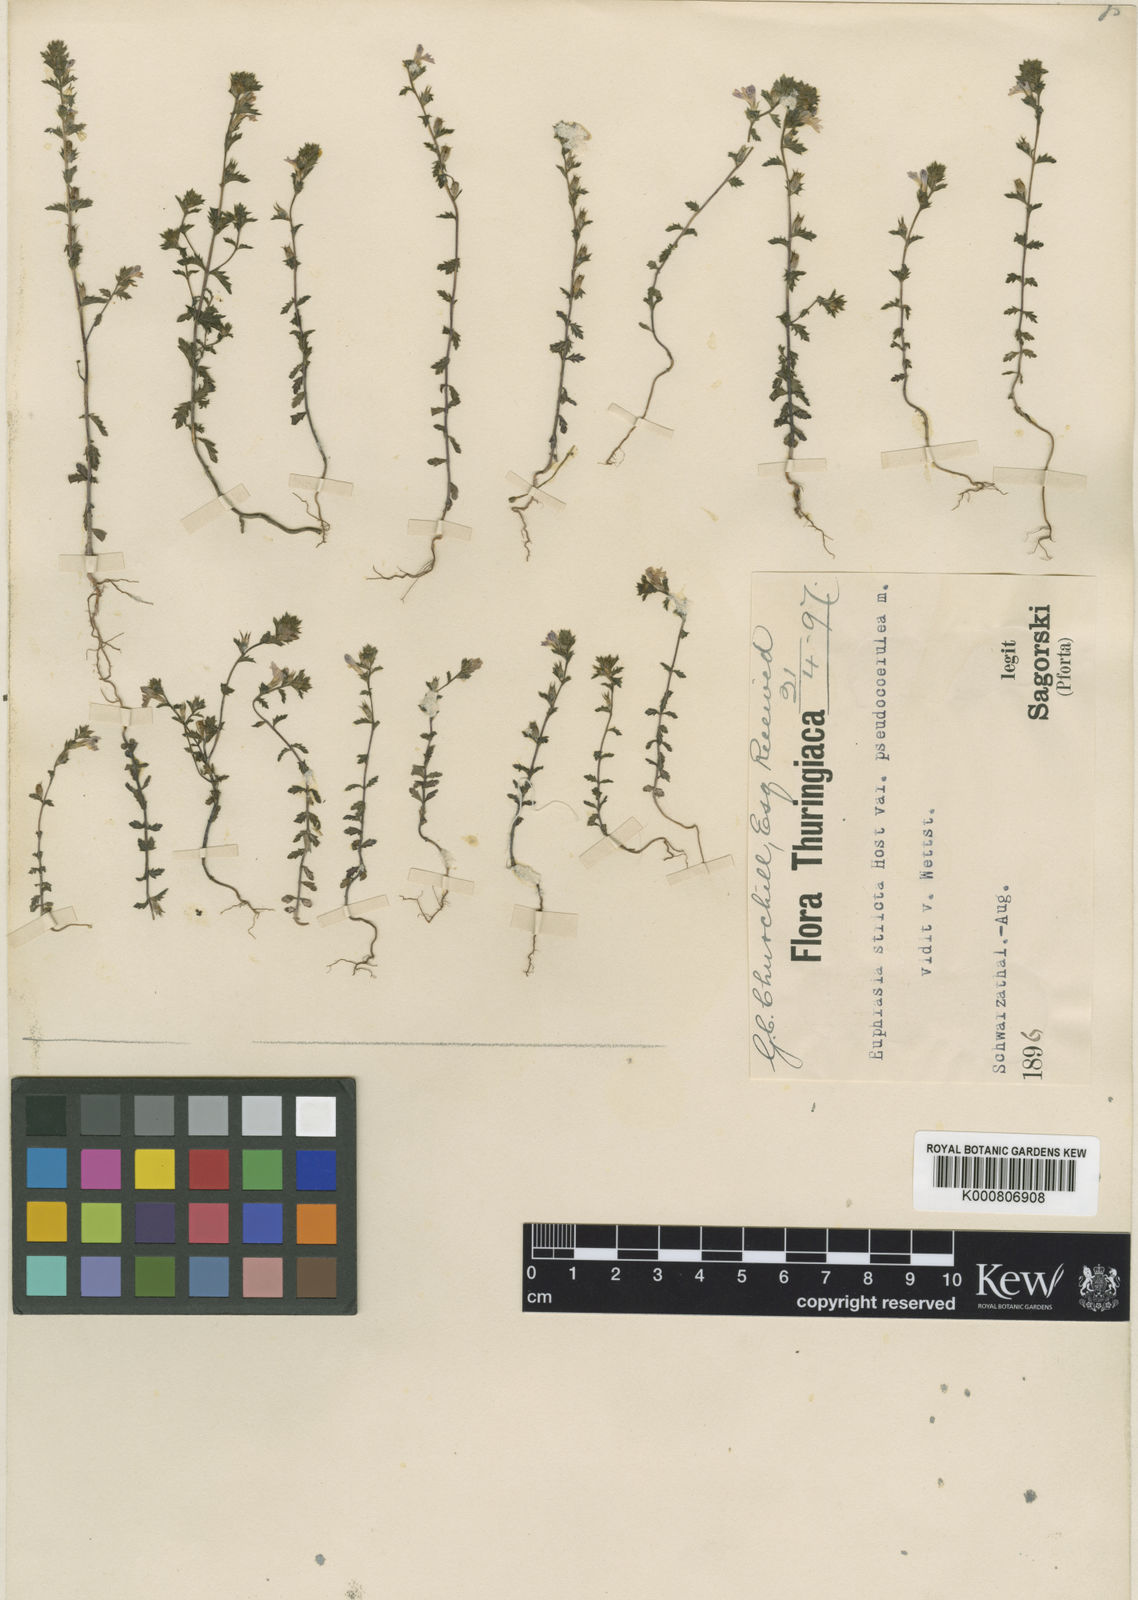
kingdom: Plantae
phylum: Tracheophyta
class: Magnoliopsida
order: Lamiales
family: Orobanchaceae
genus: Euphrasia
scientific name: Euphrasia
